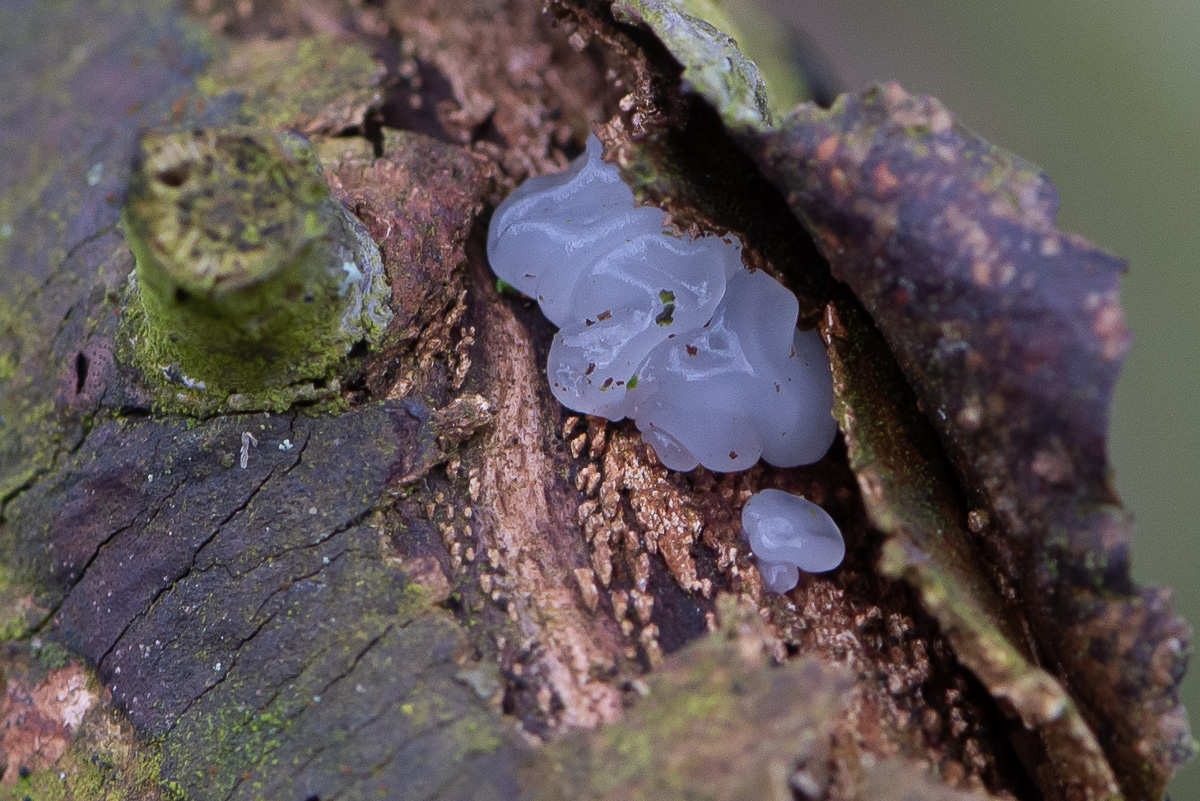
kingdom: Fungi
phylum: Basidiomycota
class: Agaricomycetes
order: Auriculariales
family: Auriculariaceae
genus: Exidia
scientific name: Exidia thuretiana
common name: hvidlig bævretop
